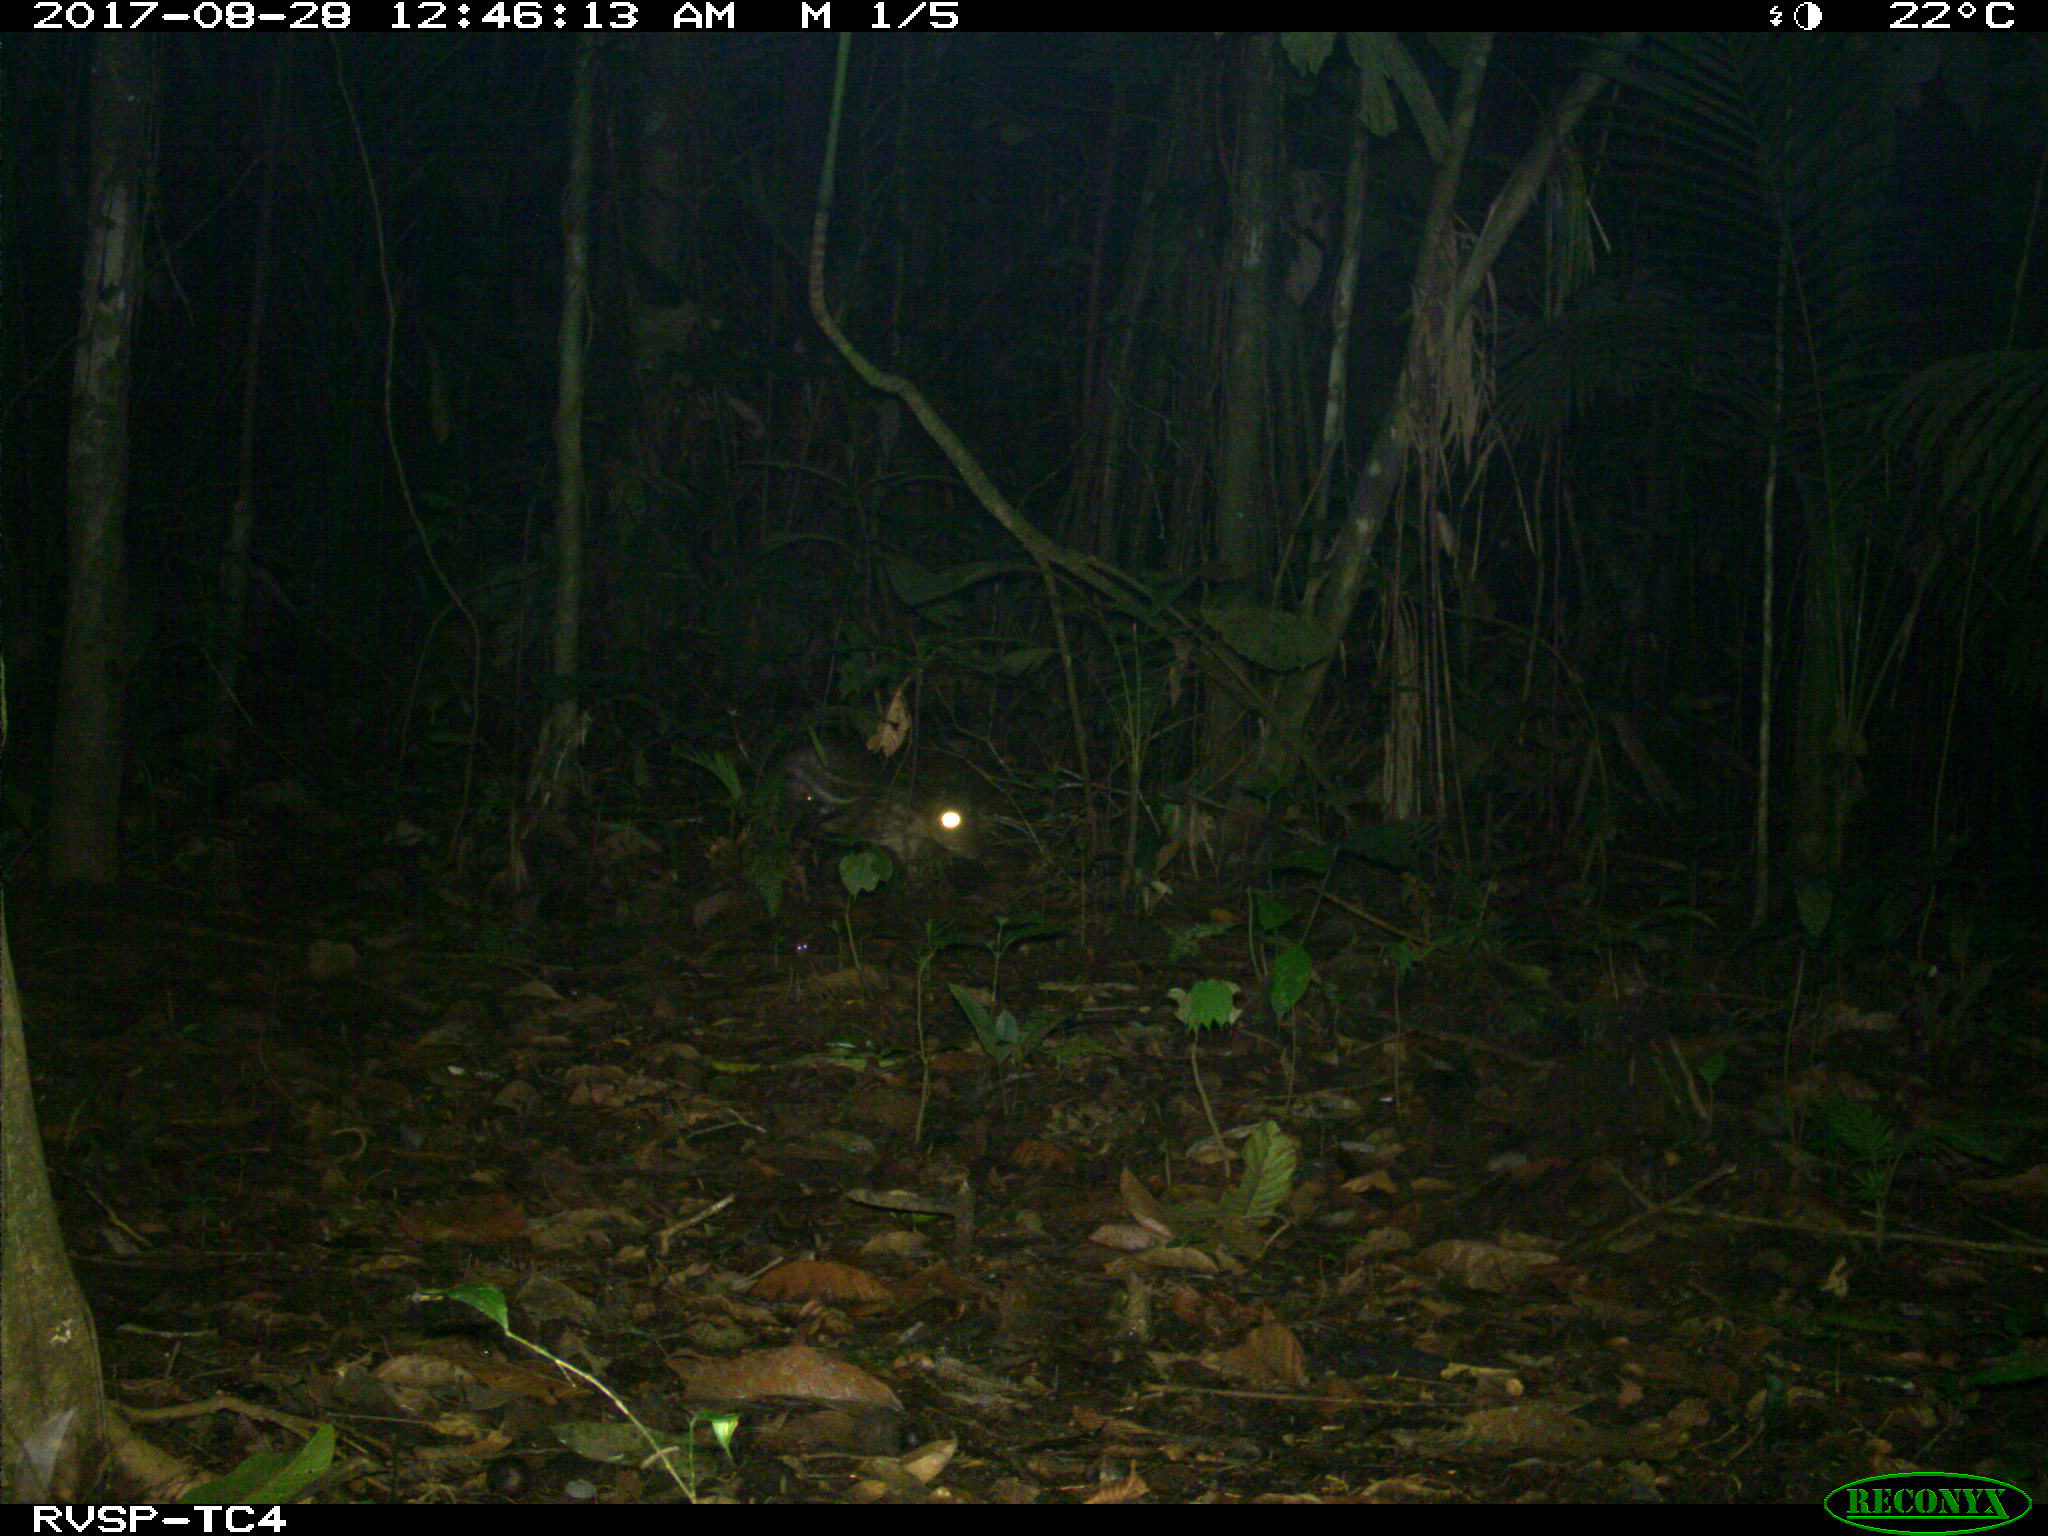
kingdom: Animalia
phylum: Chordata
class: Mammalia
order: Rodentia
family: Cuniculidae
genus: Cuniculus
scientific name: Cuniculus paca
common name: Lowland paca
